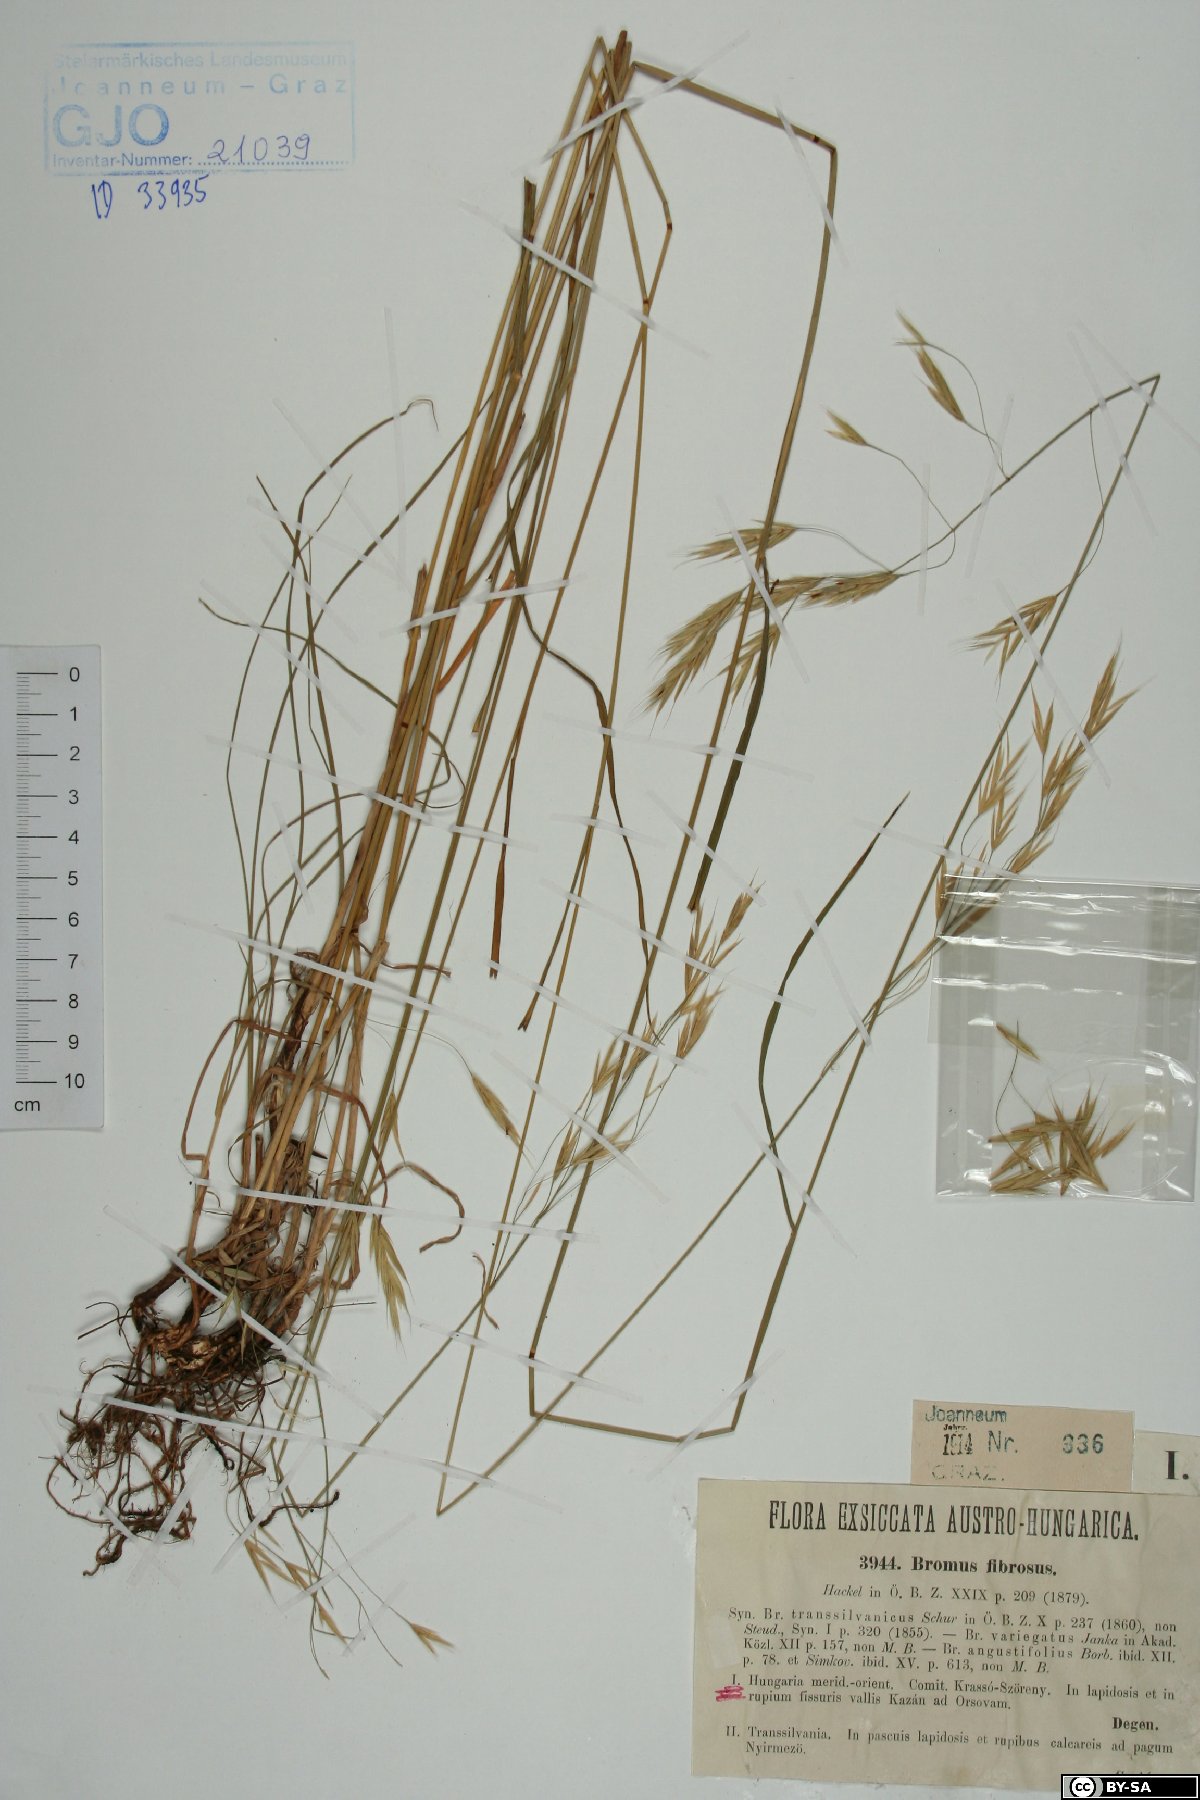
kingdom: Plantae
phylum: Tracheophyta
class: Liliopsida
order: Poales
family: Poaceae
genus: Bromus
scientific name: Bromus riparius
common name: Meadow brome
